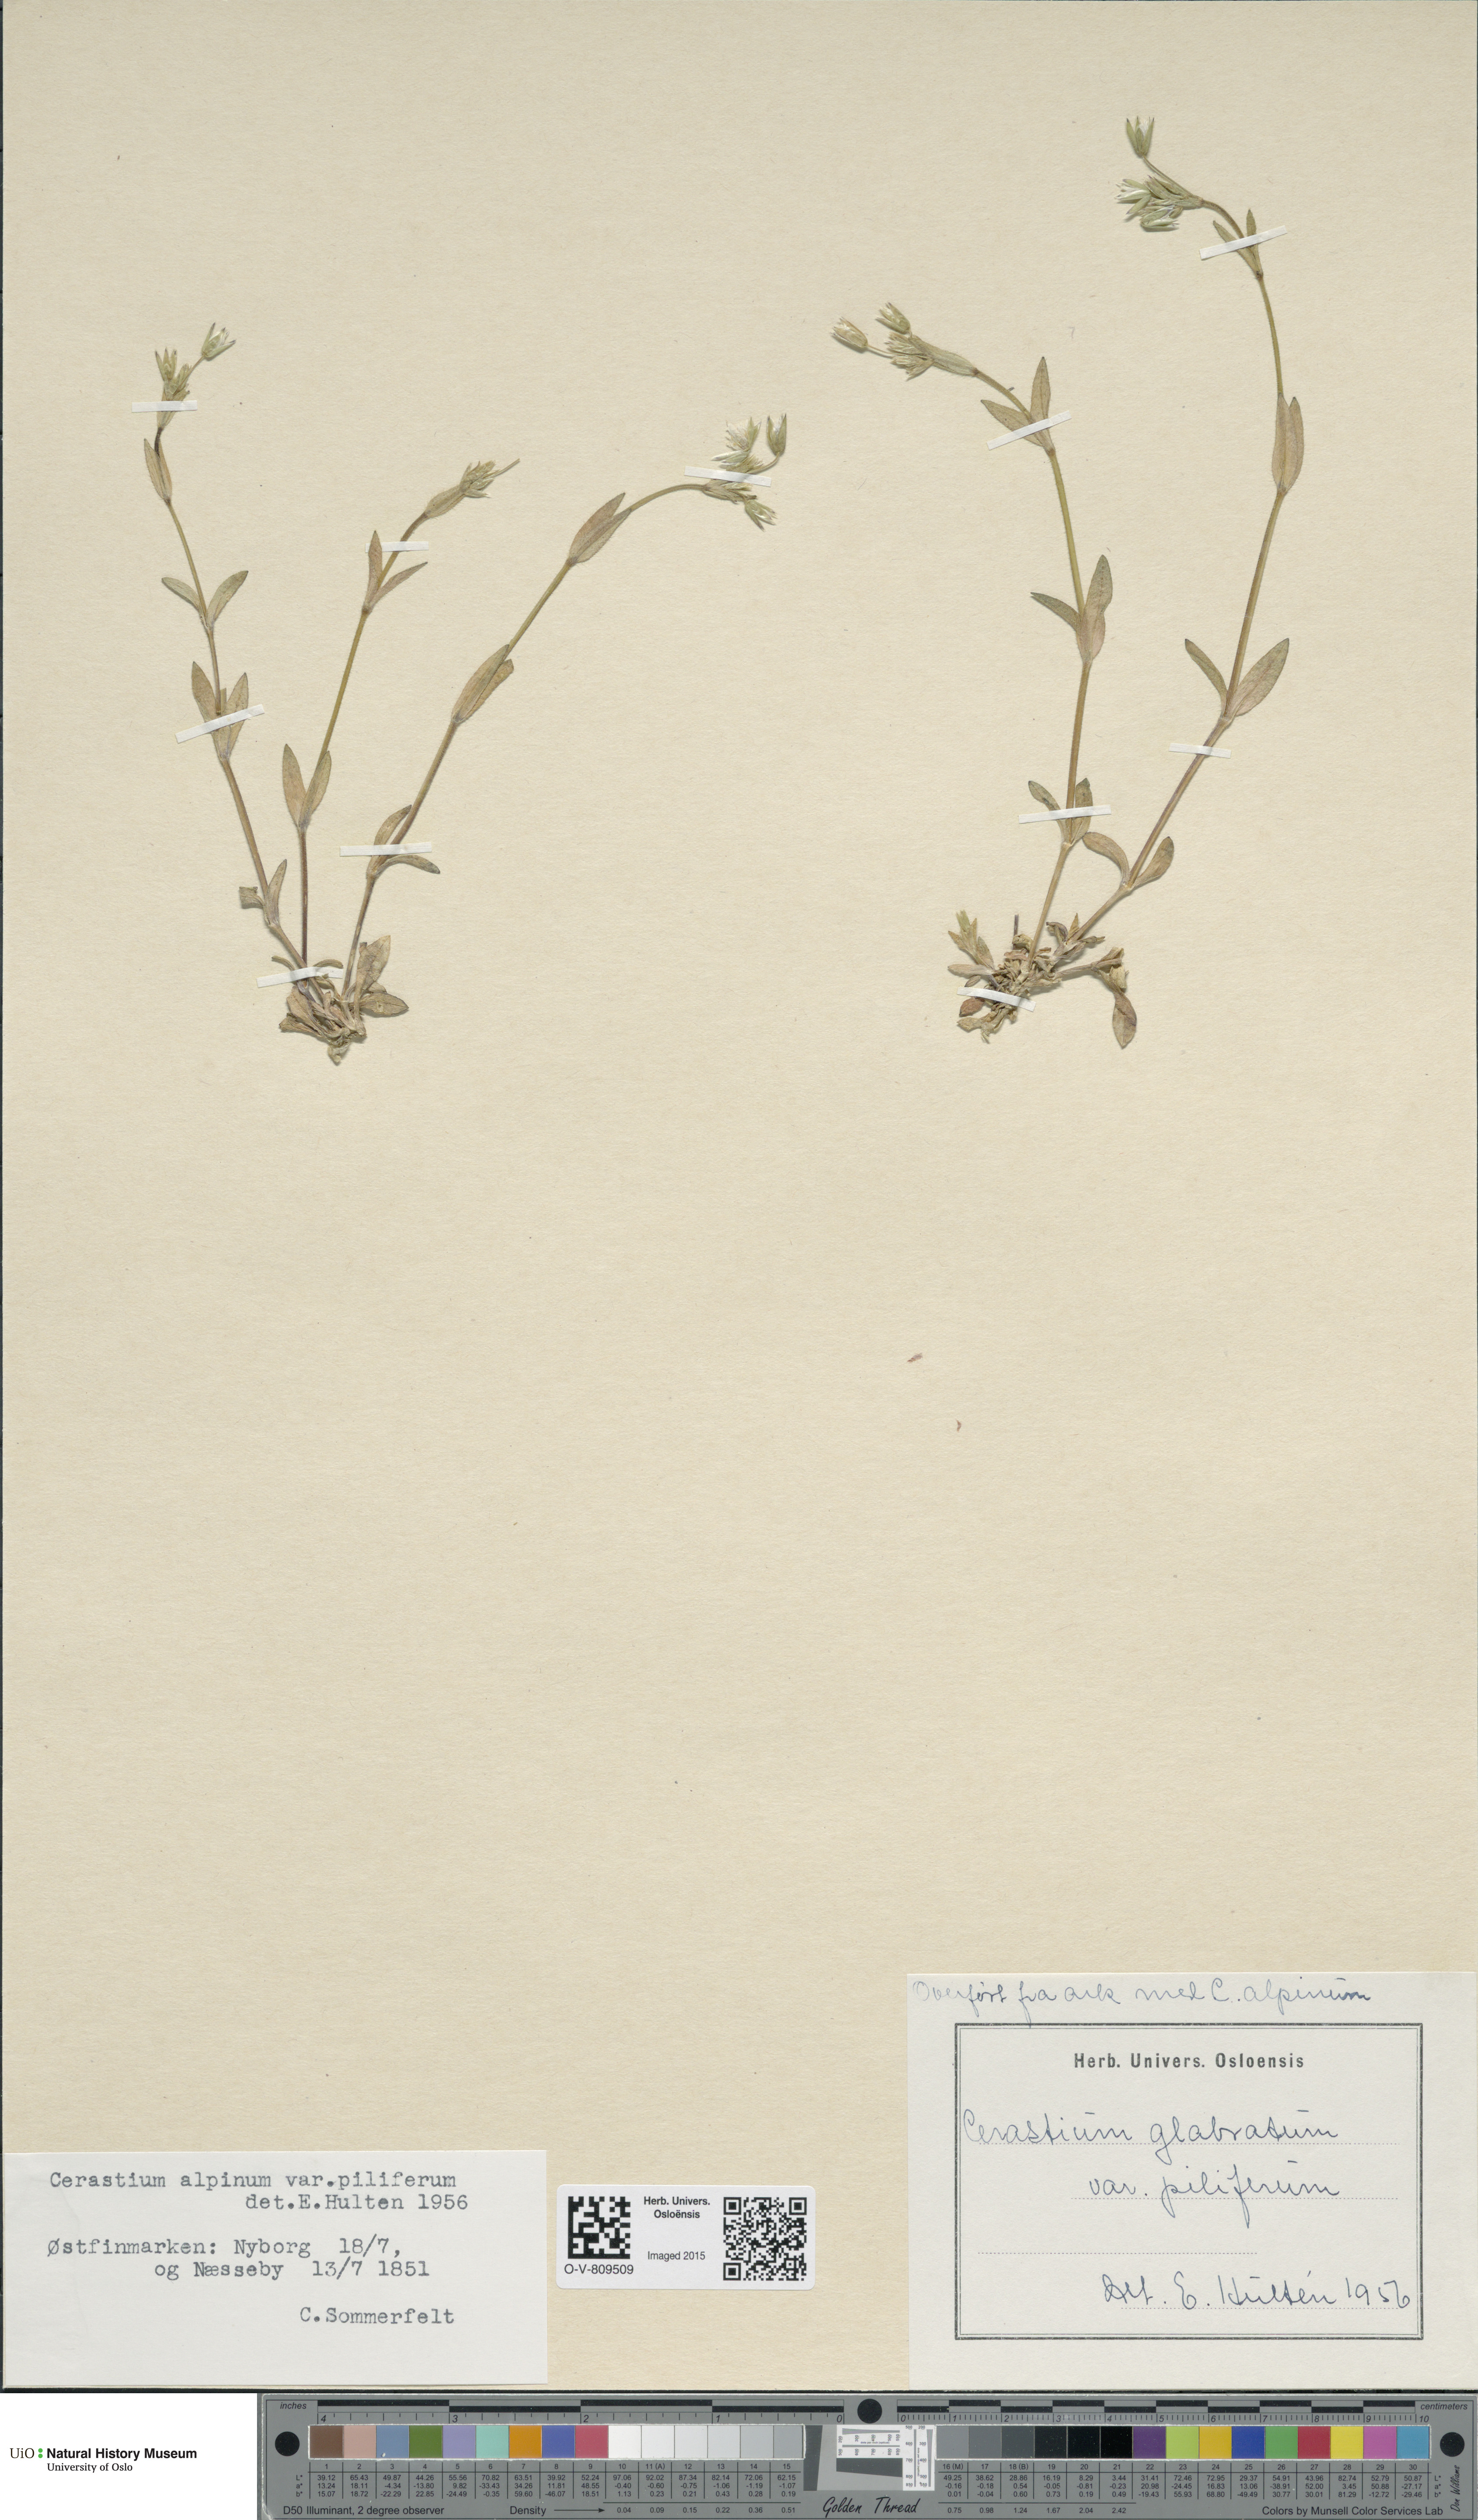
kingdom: Plantae
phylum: Tracheophyta
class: Magnoliopsida
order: Caryophyllales
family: Caryophyllaceae
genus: Cerastium
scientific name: Cerastium alpinum
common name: Alpine mouse-ear
